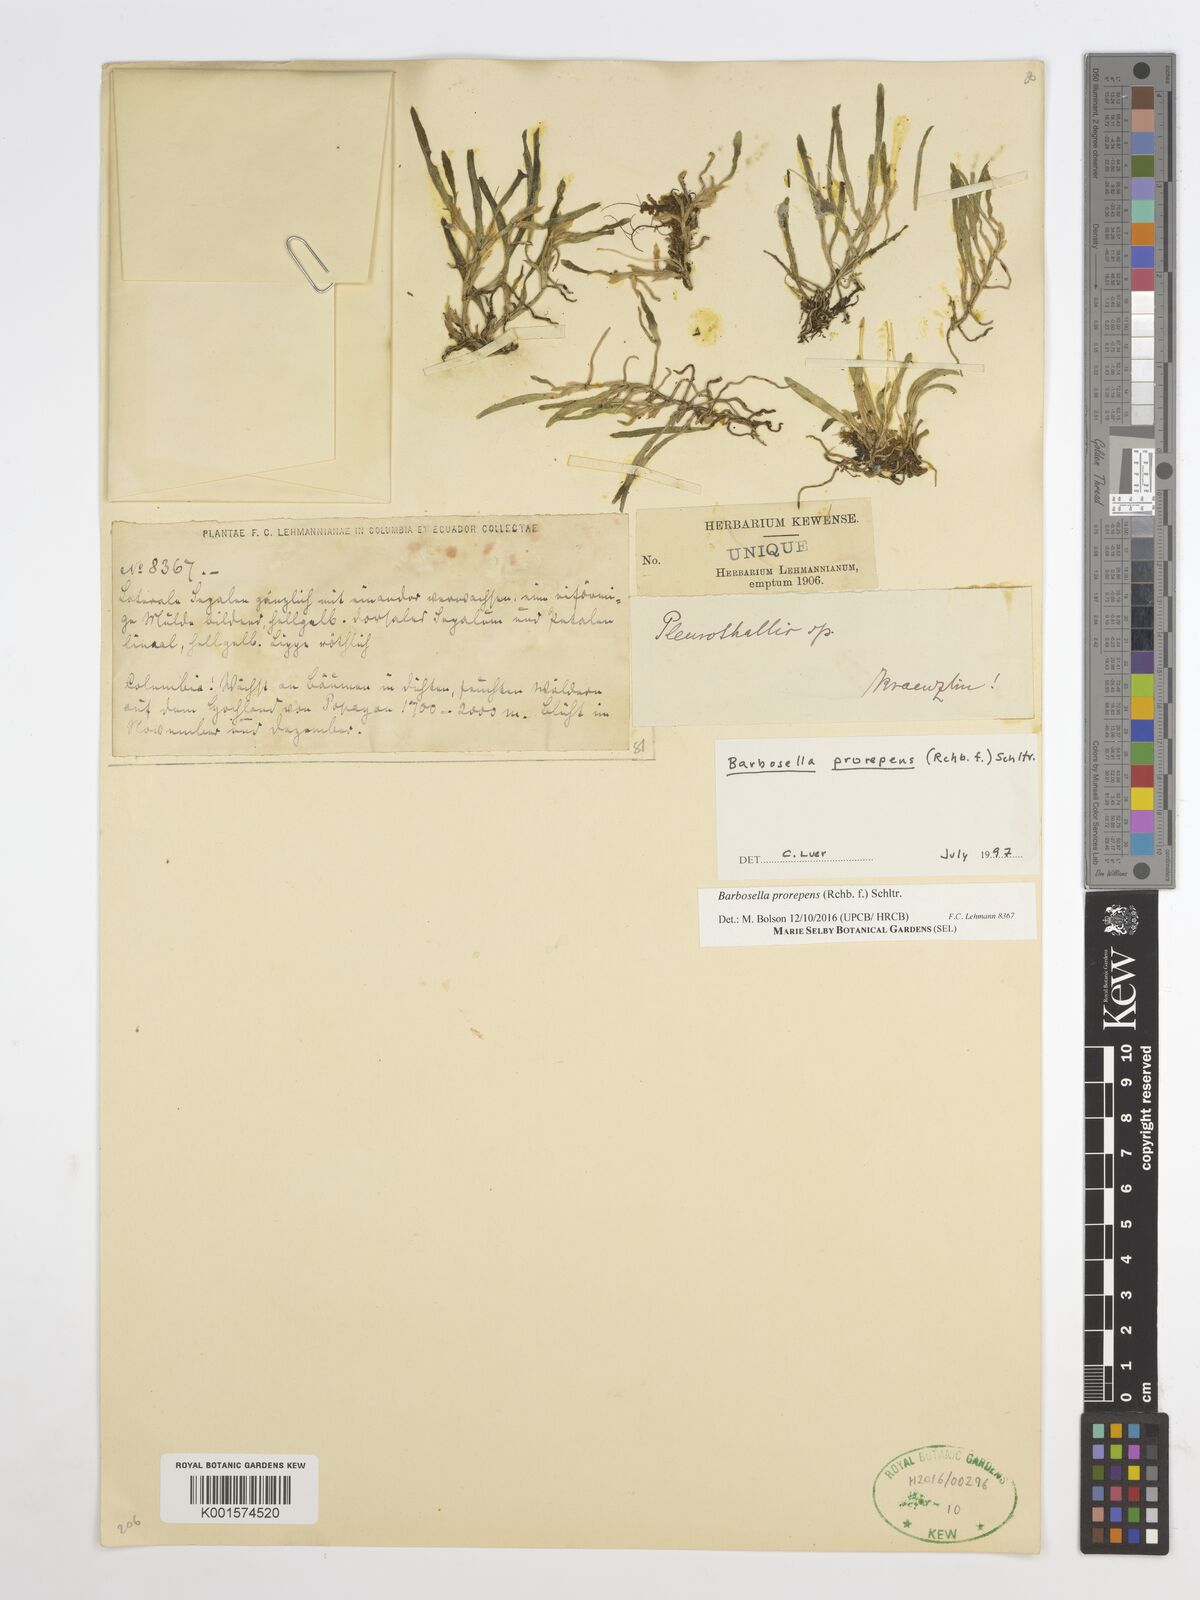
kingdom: Plantae
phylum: Tracheophyta
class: Liliopsida
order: Asparagales
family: Orchidaceae
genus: Barbosella
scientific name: Barbosella prorepens
